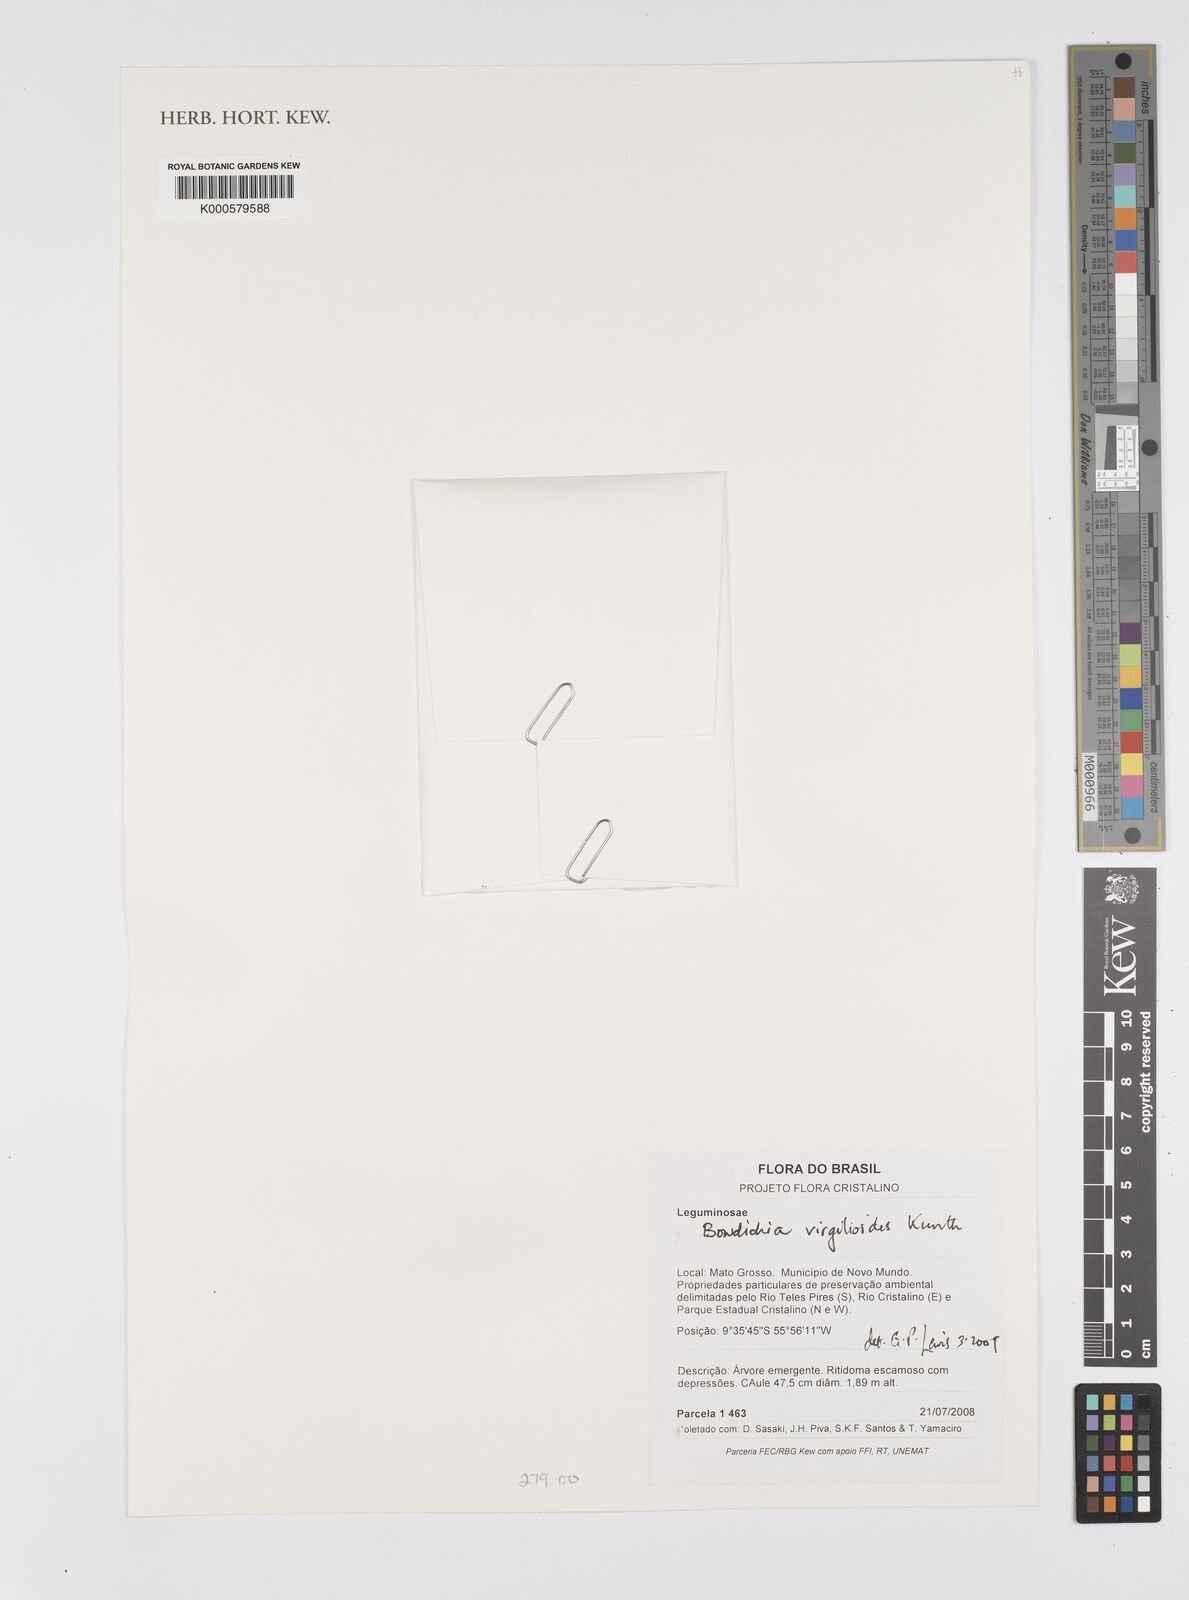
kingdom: Plantae
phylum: Tracheophyta
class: Magnoliopsida
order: Fabales
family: Fabaceae
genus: Bowdichia
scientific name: Bowdichia virgilioides
